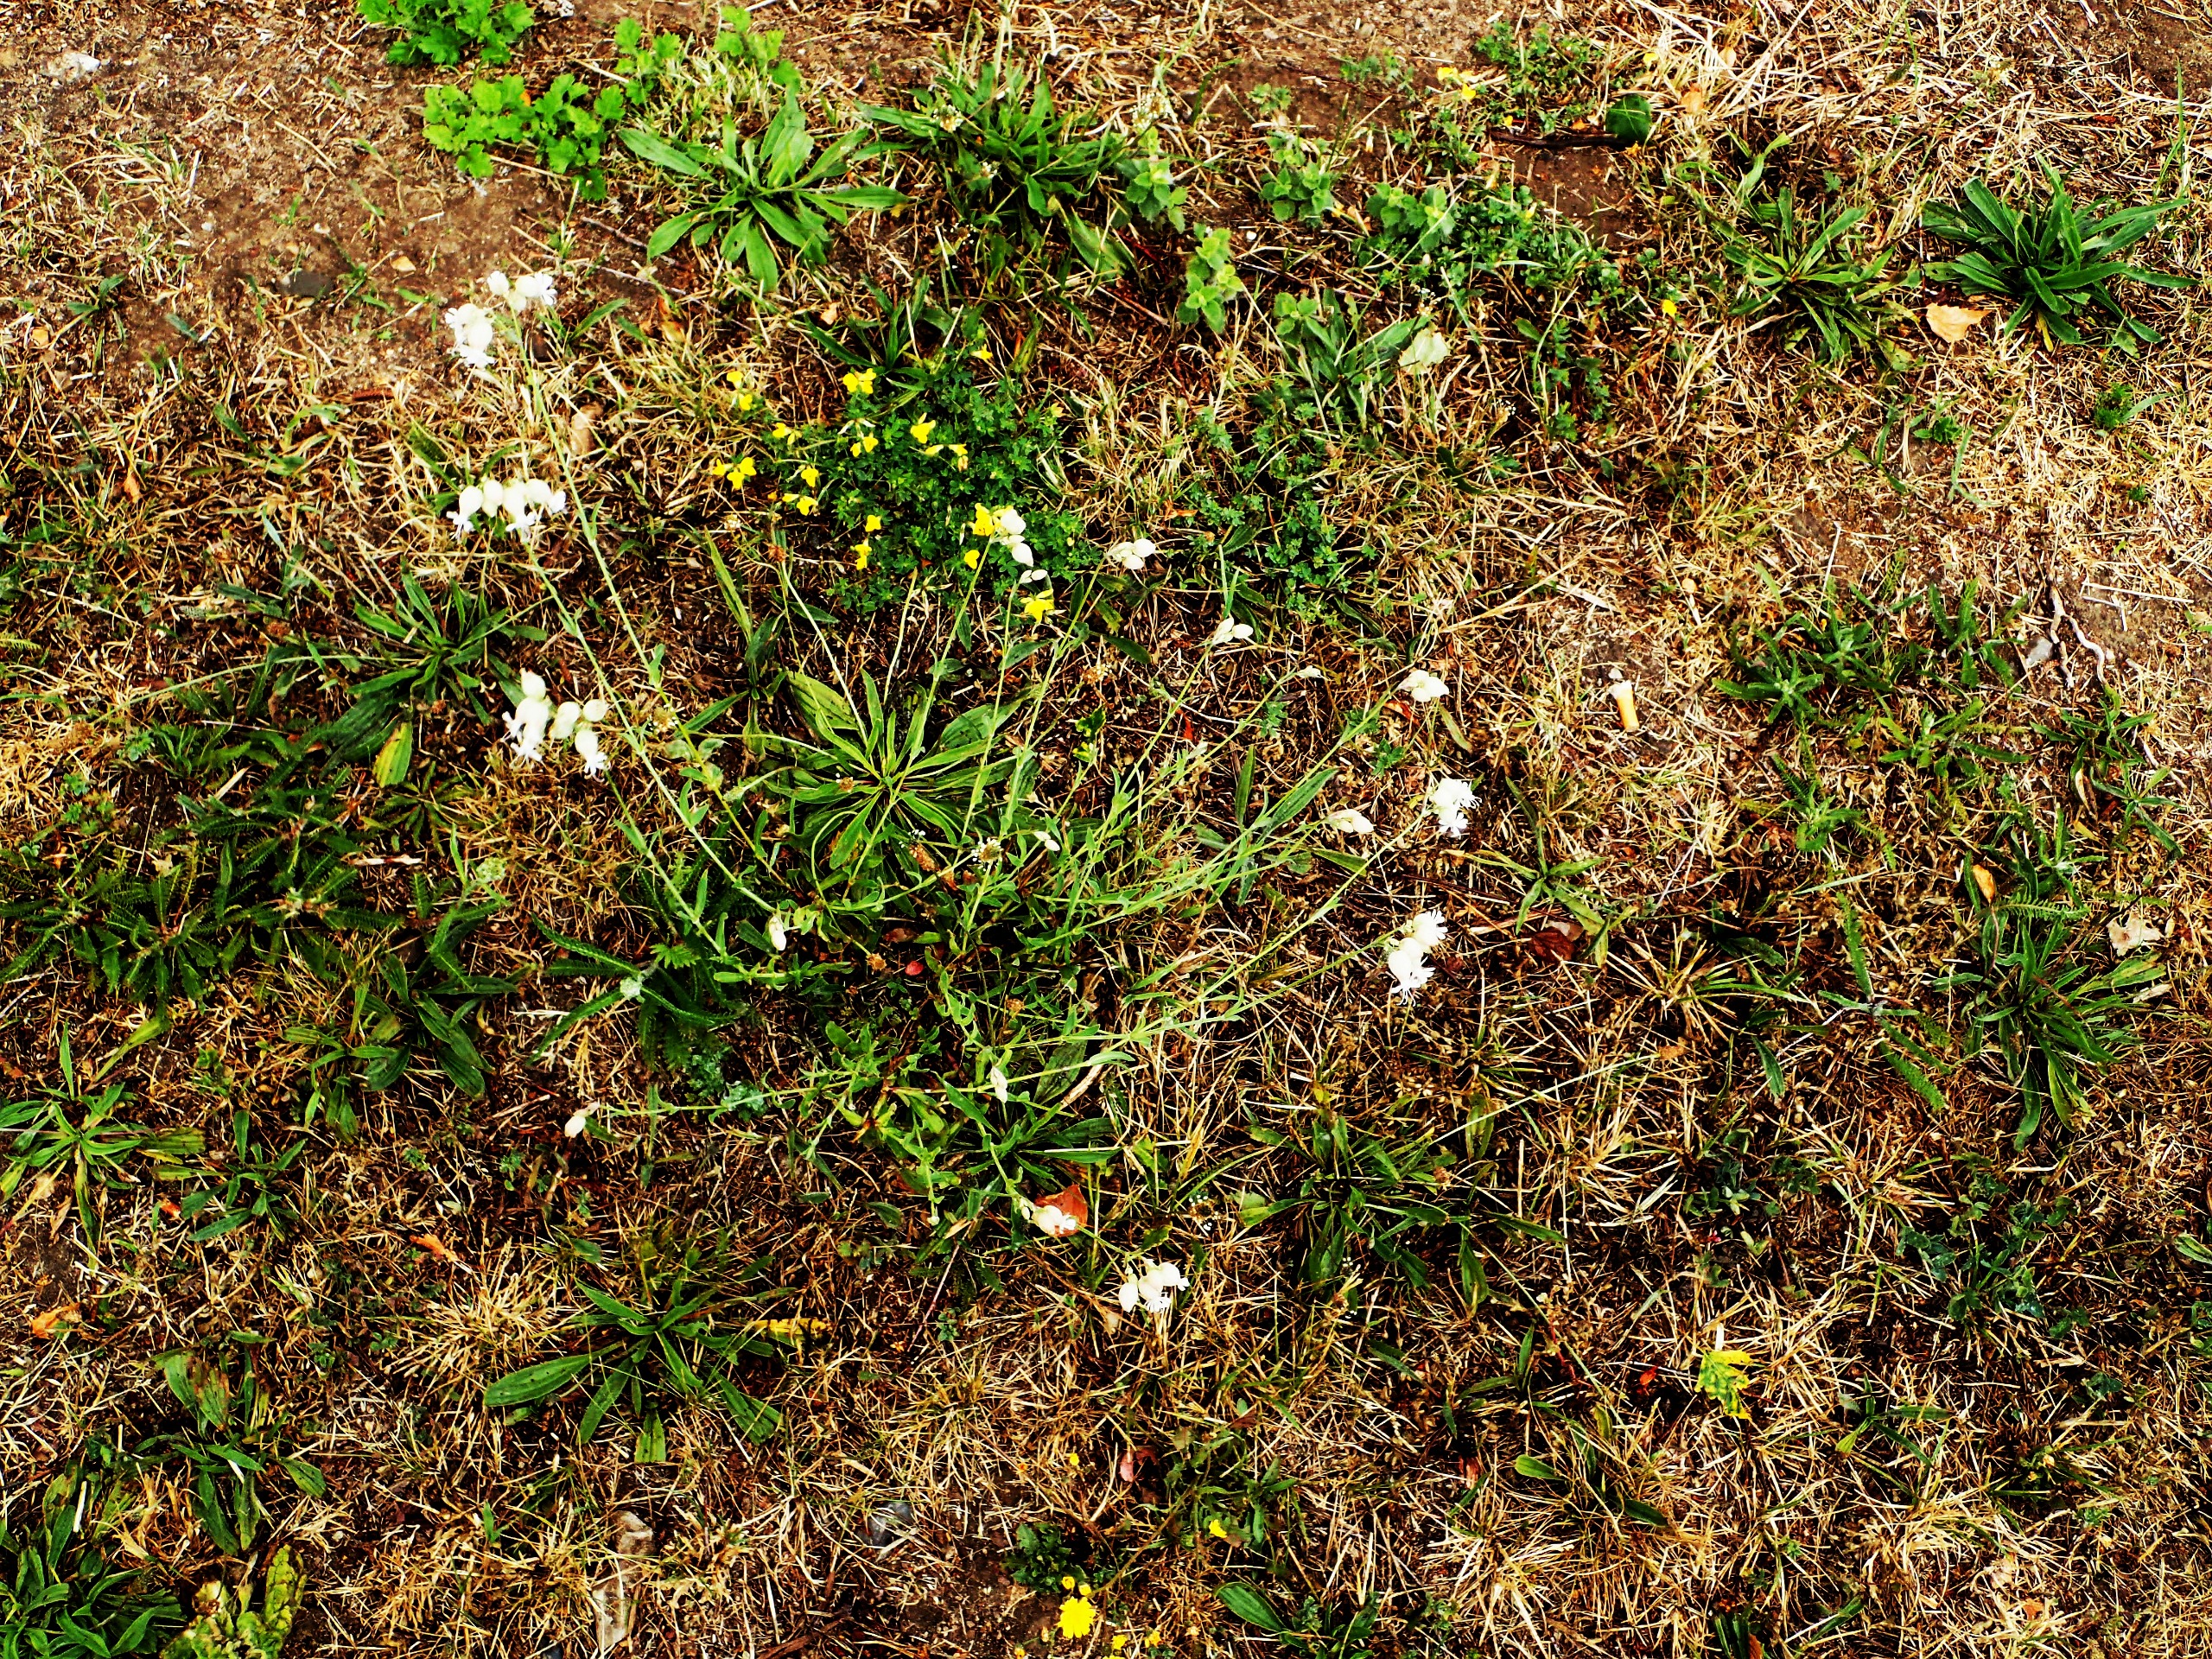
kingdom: Plantae
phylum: Tracheophyta
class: Magnoliopsida
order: Caryophyllales
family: Caryophyllaceae
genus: Silene
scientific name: Silene vulgaris
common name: Blæresmælde
